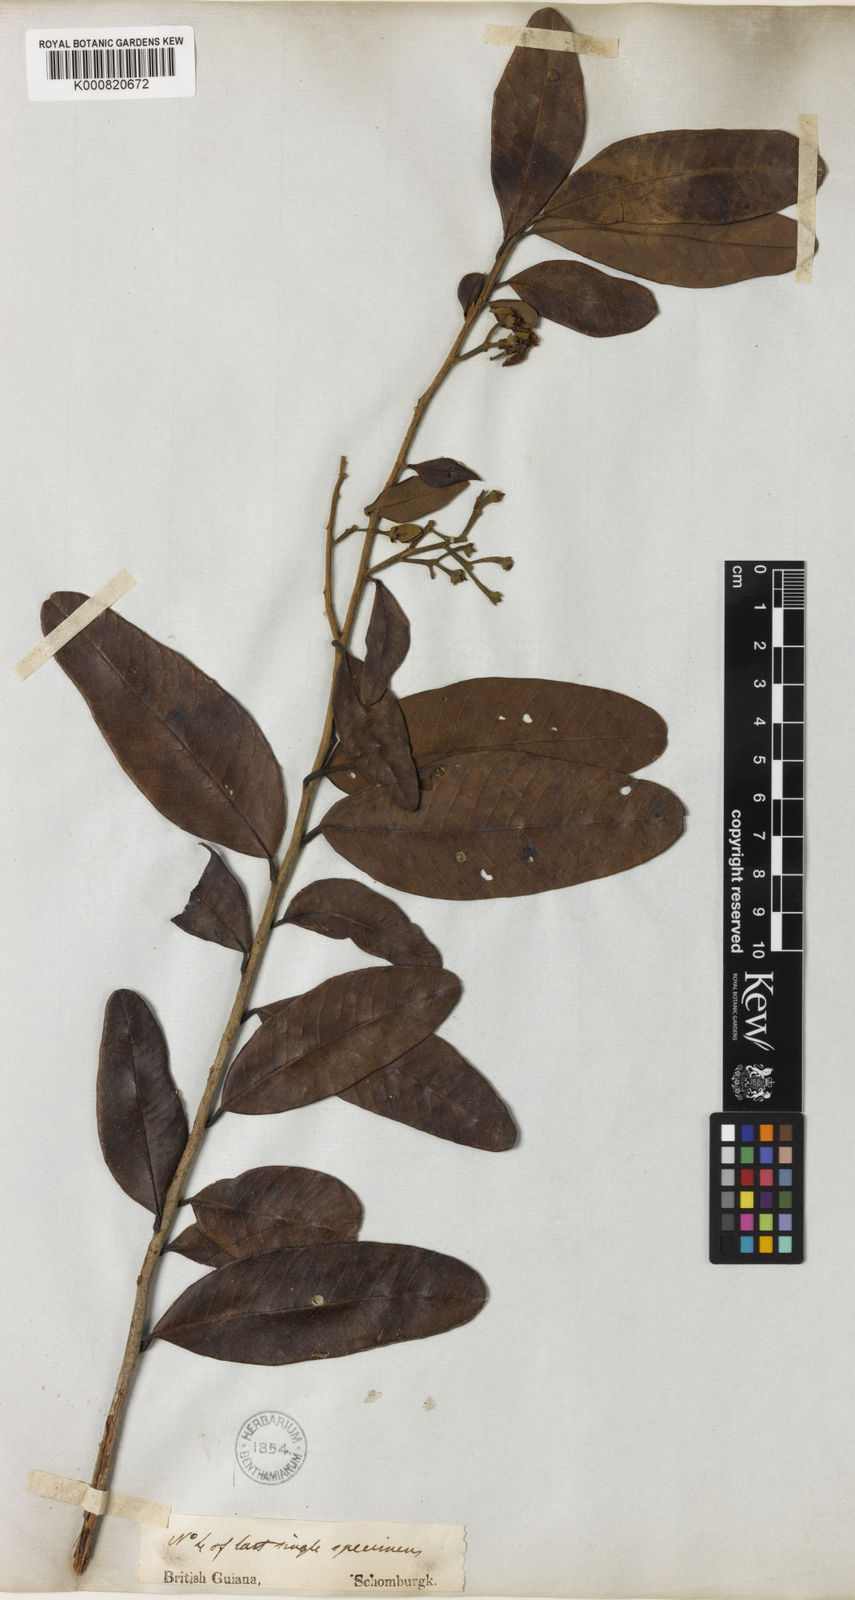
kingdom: Plantae
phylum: Tracheophyta
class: Magnoliopsida
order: Malpighiales
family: Calophyllaceae
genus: Caraipa
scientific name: Caraipa tereticaulis
